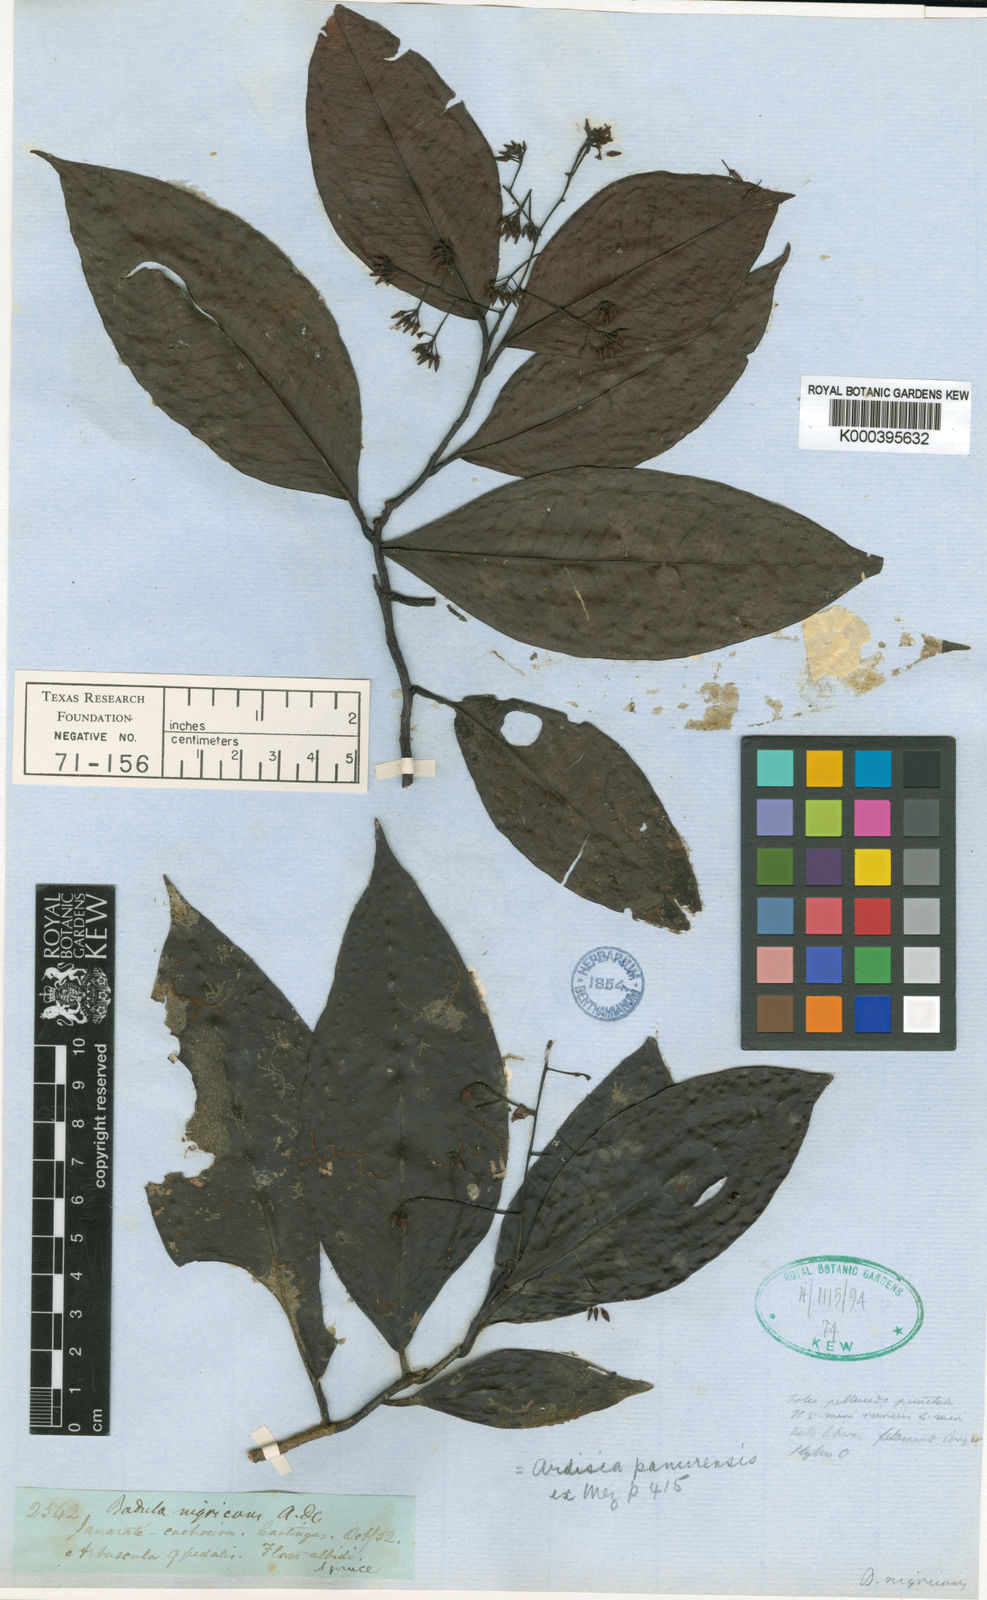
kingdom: Plantae
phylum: Tracheophyta
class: Magnoliopsida
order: Ericales
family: Primulaceae
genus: Stylogyne
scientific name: Stylogyne nigricans
